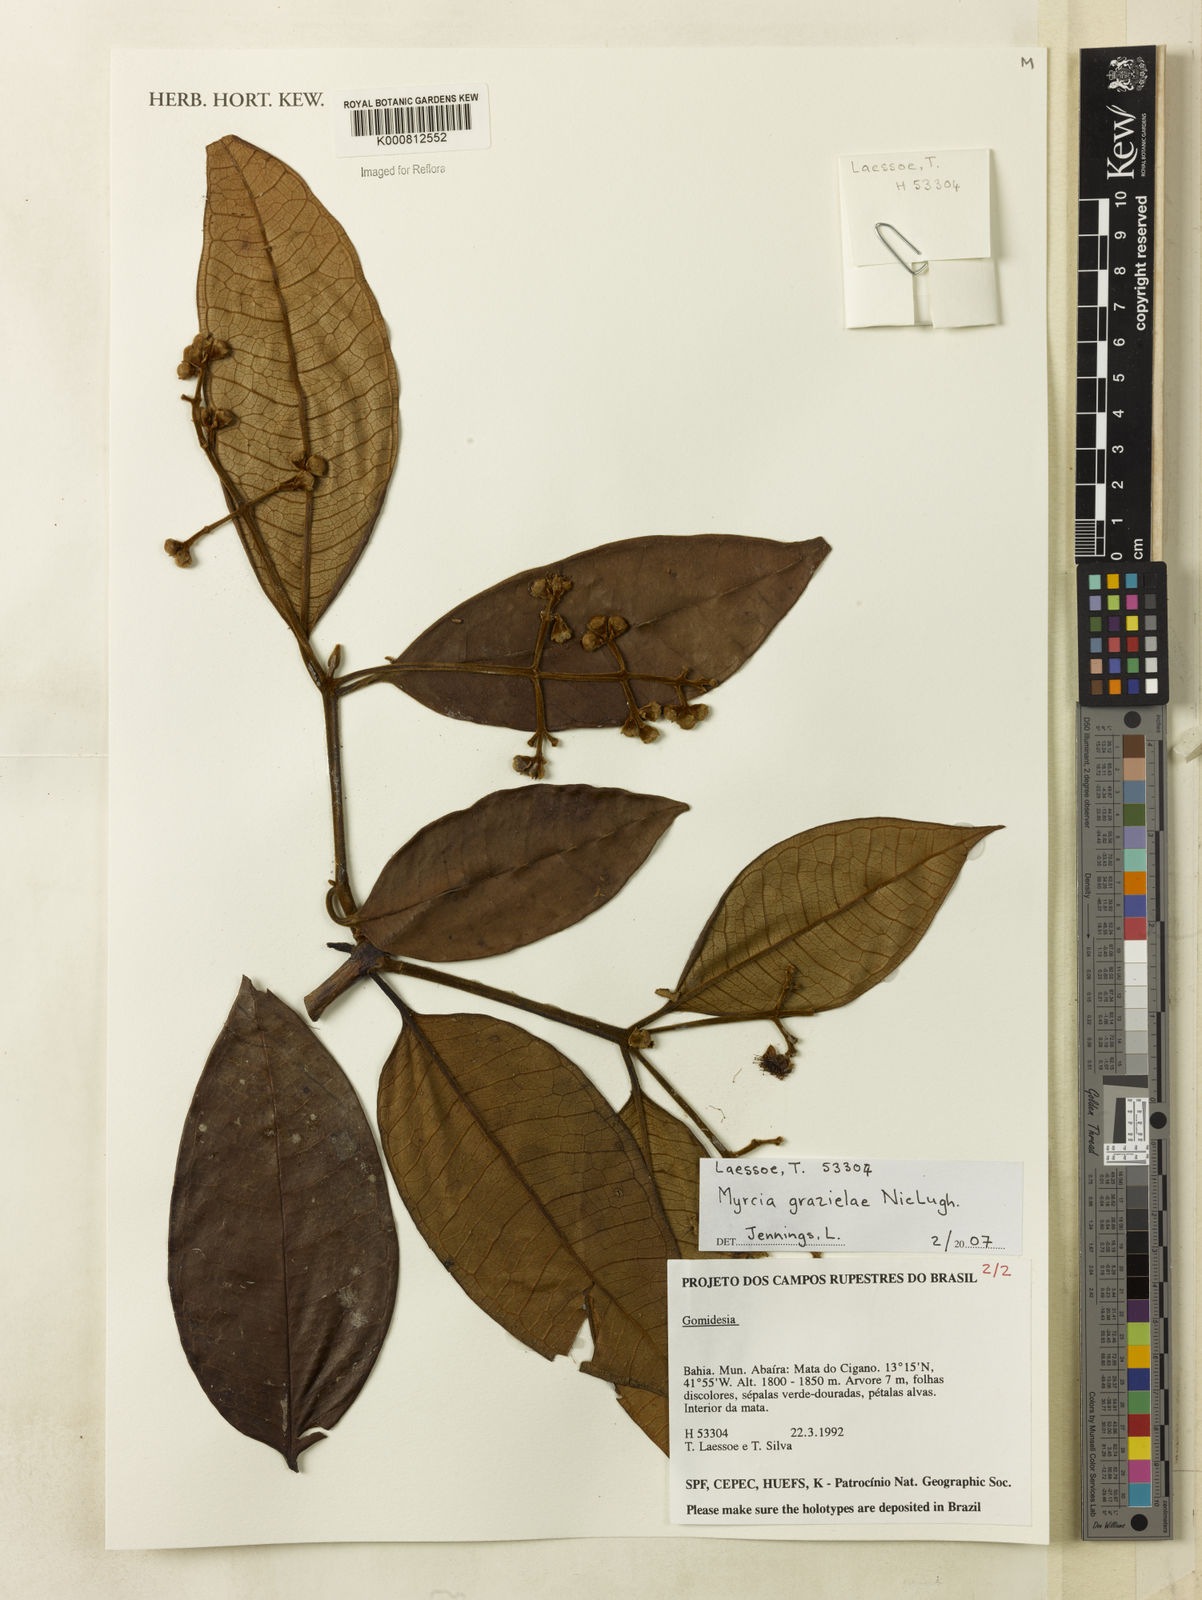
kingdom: Plantae
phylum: Tracheophyta
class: Magnoliopsida
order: Myrtales
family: Myrtaceae
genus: Myrcia
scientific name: Myrcia fenzliana
